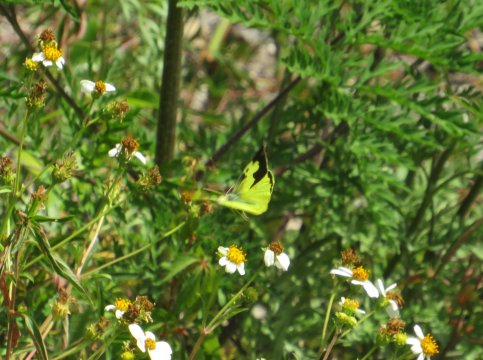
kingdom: Animalia
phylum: Arthropoda
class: Insecta
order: Lepidoptera
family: Pieridae
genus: Zerene
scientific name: Zerene cesonia
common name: Southern Dogface
